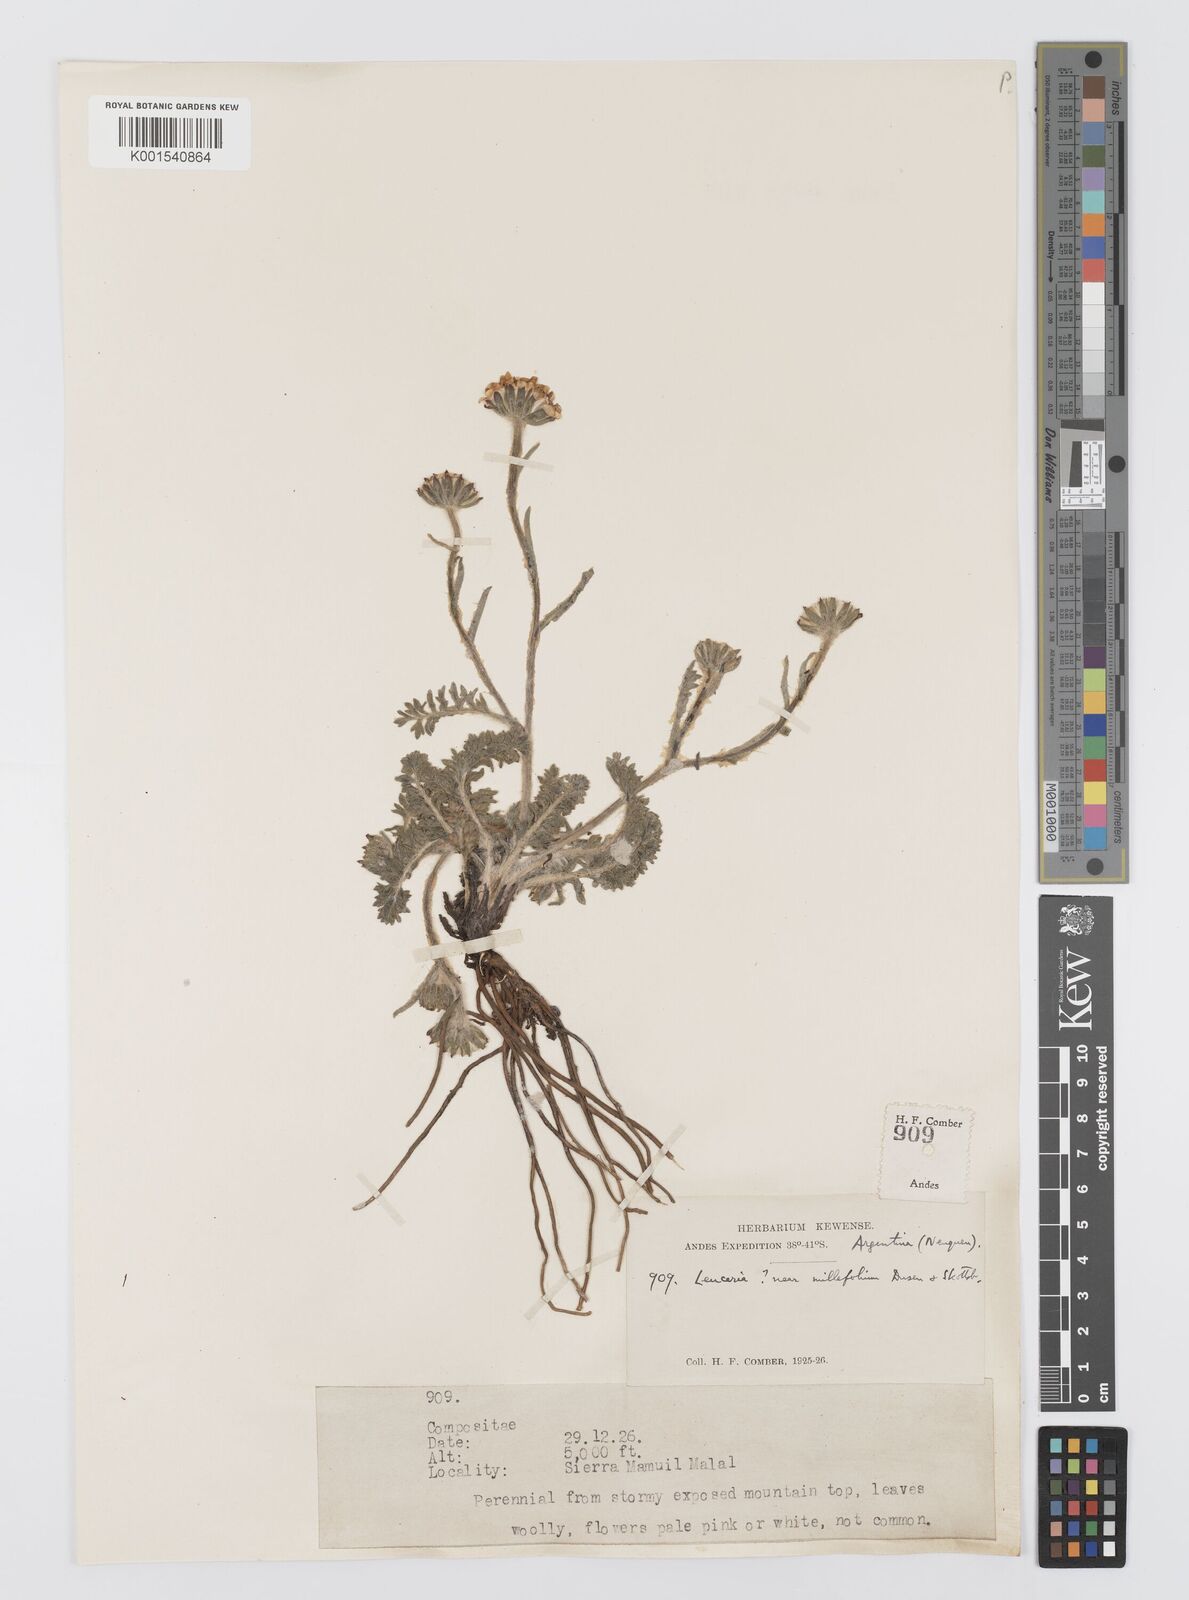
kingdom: Plantae
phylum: Tracheophyta
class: Magnoliopsida
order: Asterales
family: Asteraceae
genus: Leucheria
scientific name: Leucheria millefolium
